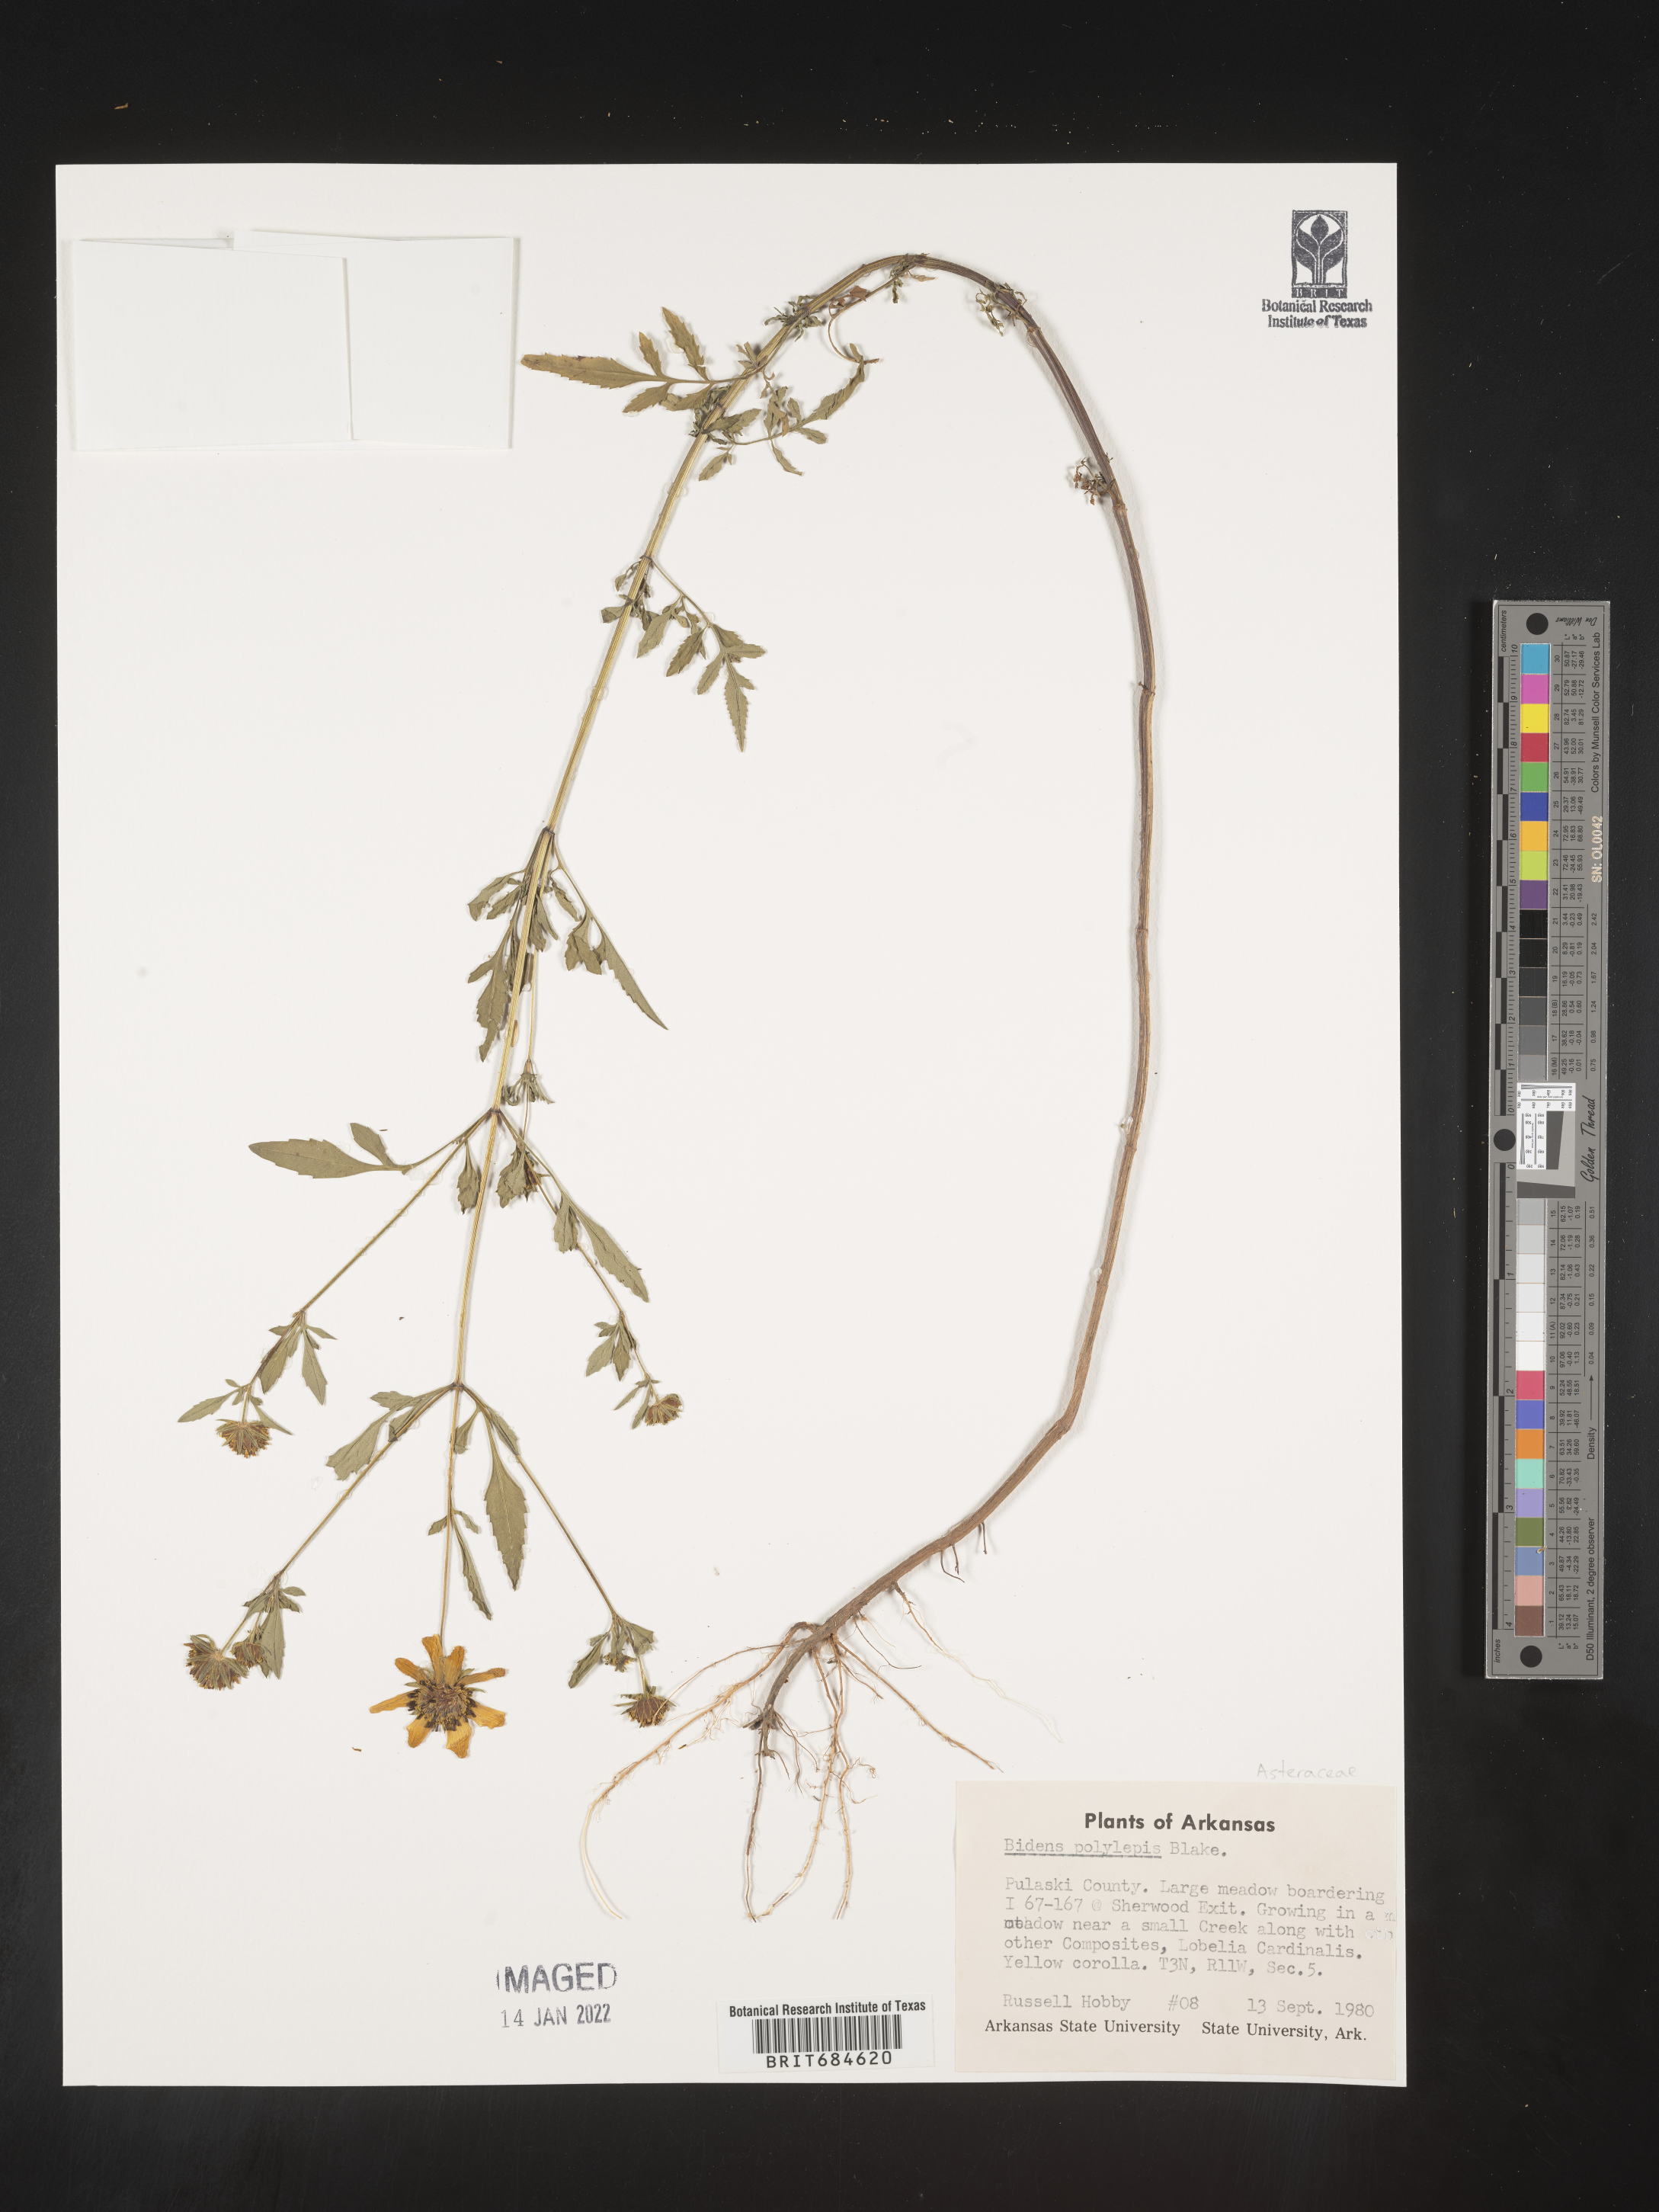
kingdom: Plantae
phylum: Tracheophyta
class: Magnoliopsida
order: Asterales
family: Asteraceae
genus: Bidens
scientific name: Bidens polylepis
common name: Awnless beggarticks
